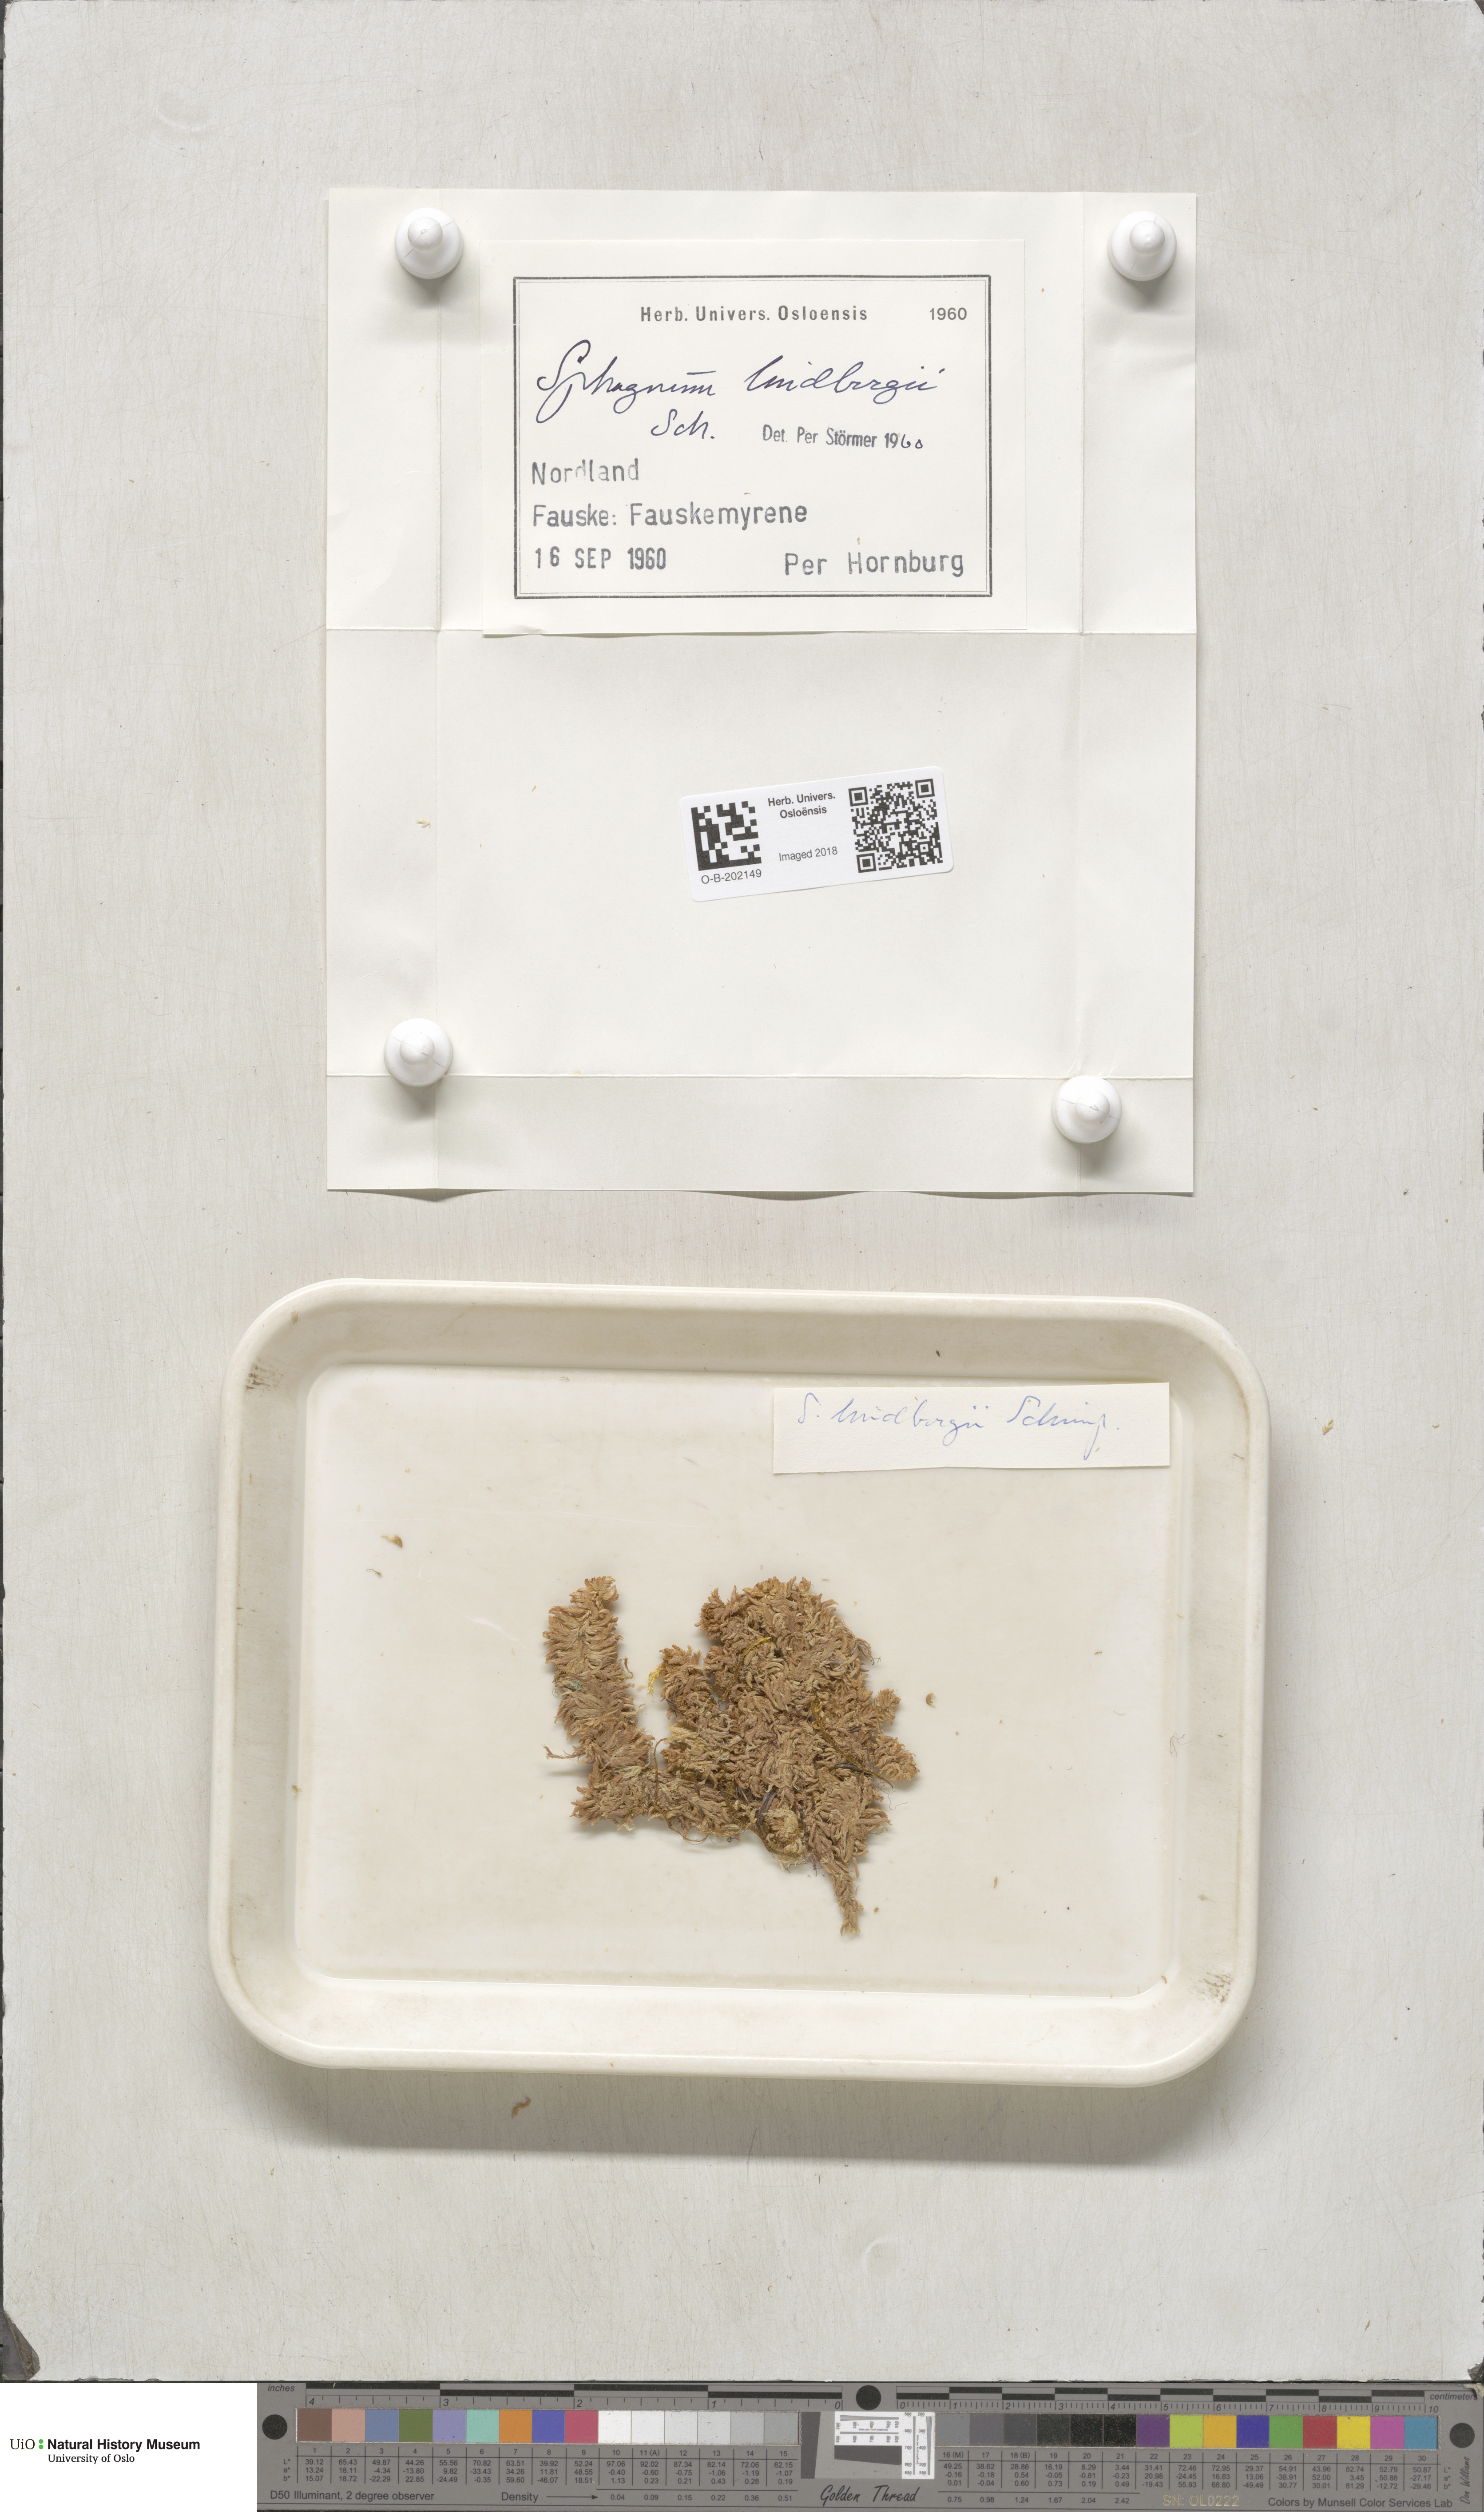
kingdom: Plantae
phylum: Bryophyta
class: Sphagnopsida
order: Sphagnales
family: Sphagnaceae
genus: Sphagnum
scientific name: Sphagnum lindbergii
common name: Lindberg's peat moss
